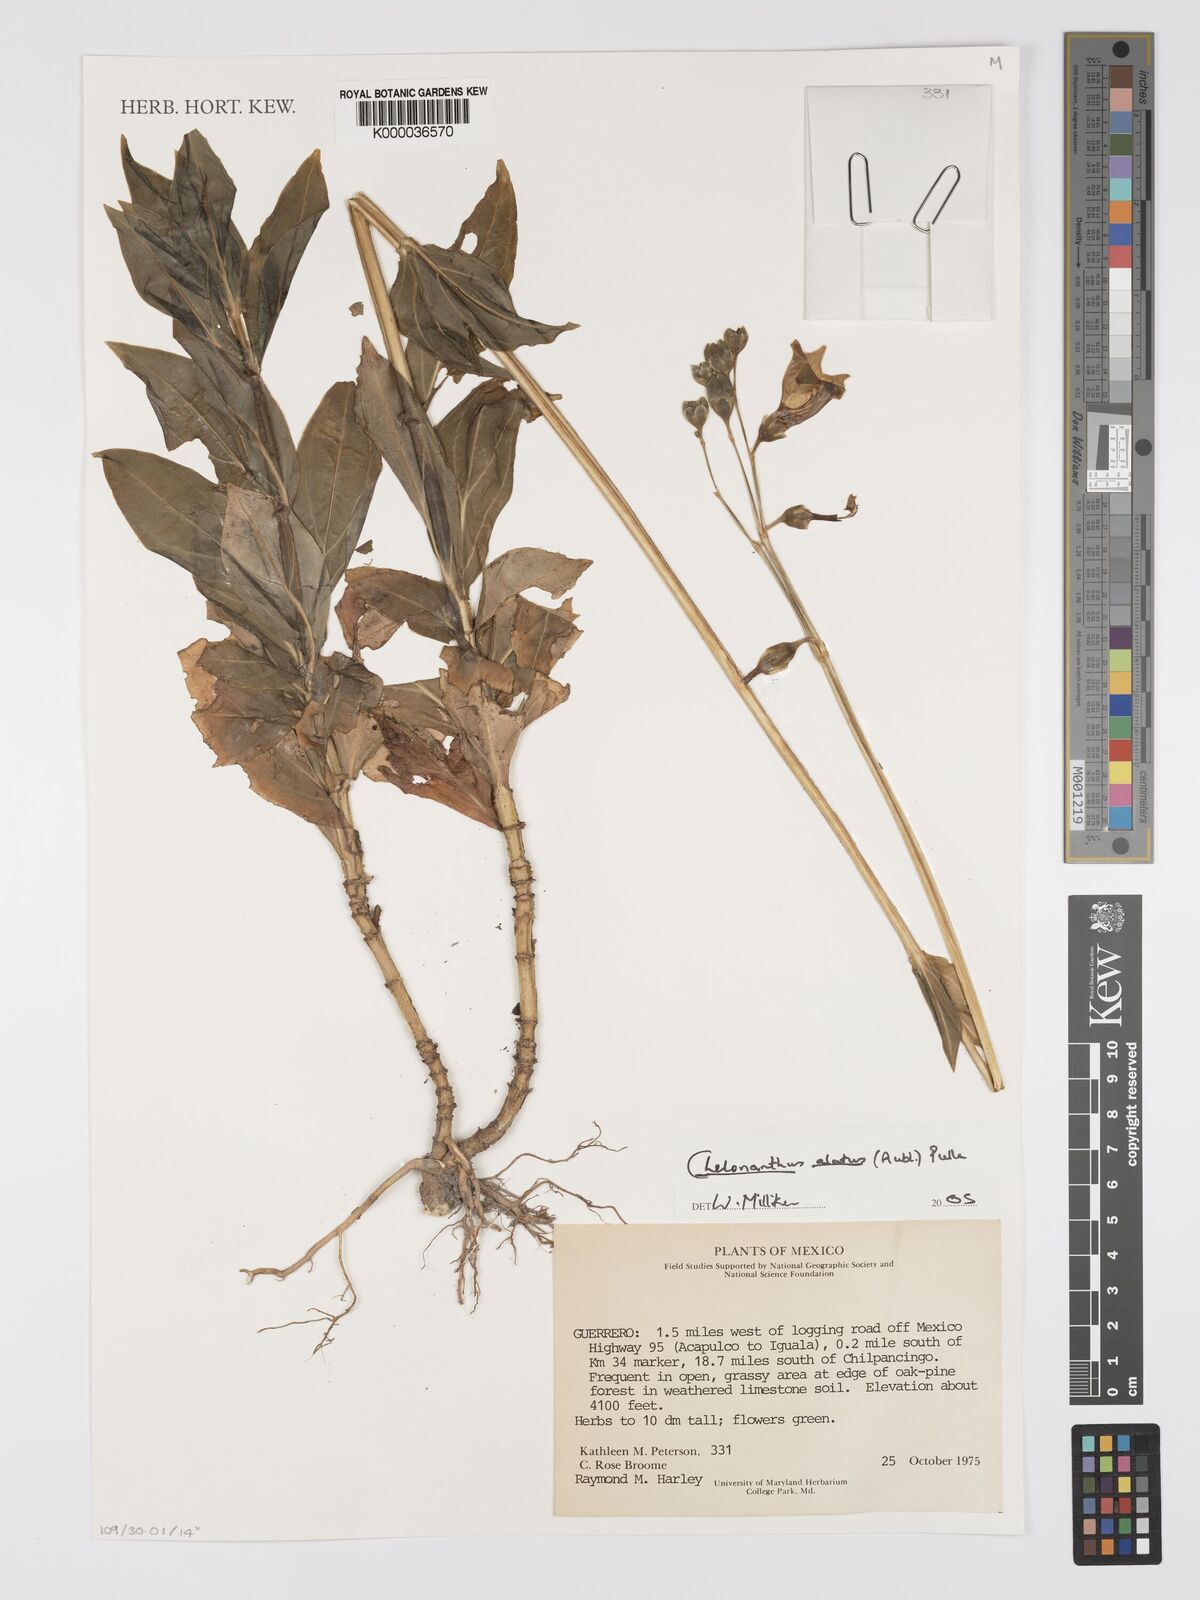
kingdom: Plantae
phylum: Tracheophyta
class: Magnoliopsida
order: Gentianales
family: Gentianaceae
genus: Chelonanthus
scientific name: Chelonanthus alatus
